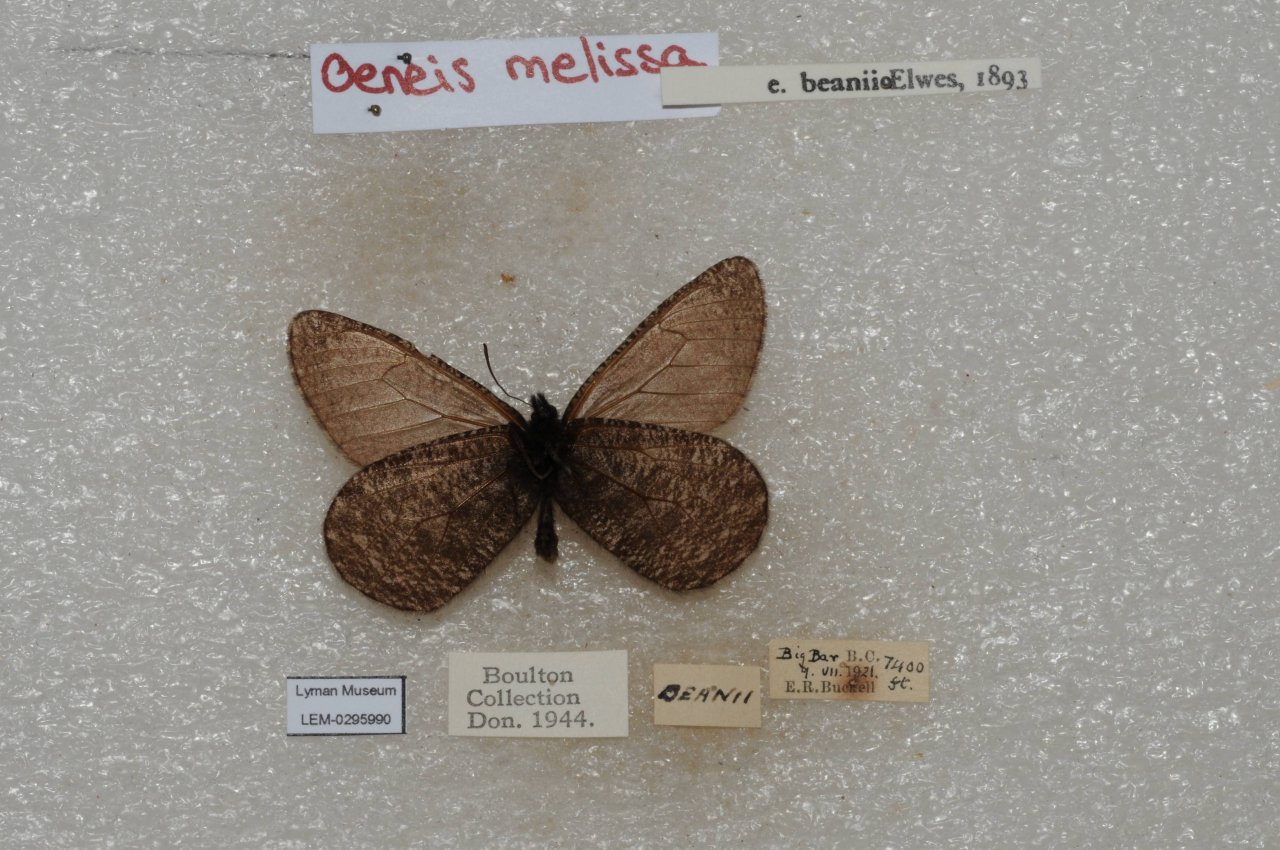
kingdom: Animalia
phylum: Arthropoda
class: Insecta
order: Lepidoptera
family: Nymphalidae
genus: Oeneis
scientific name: Oeneis melissa
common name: Melissa Arctic
